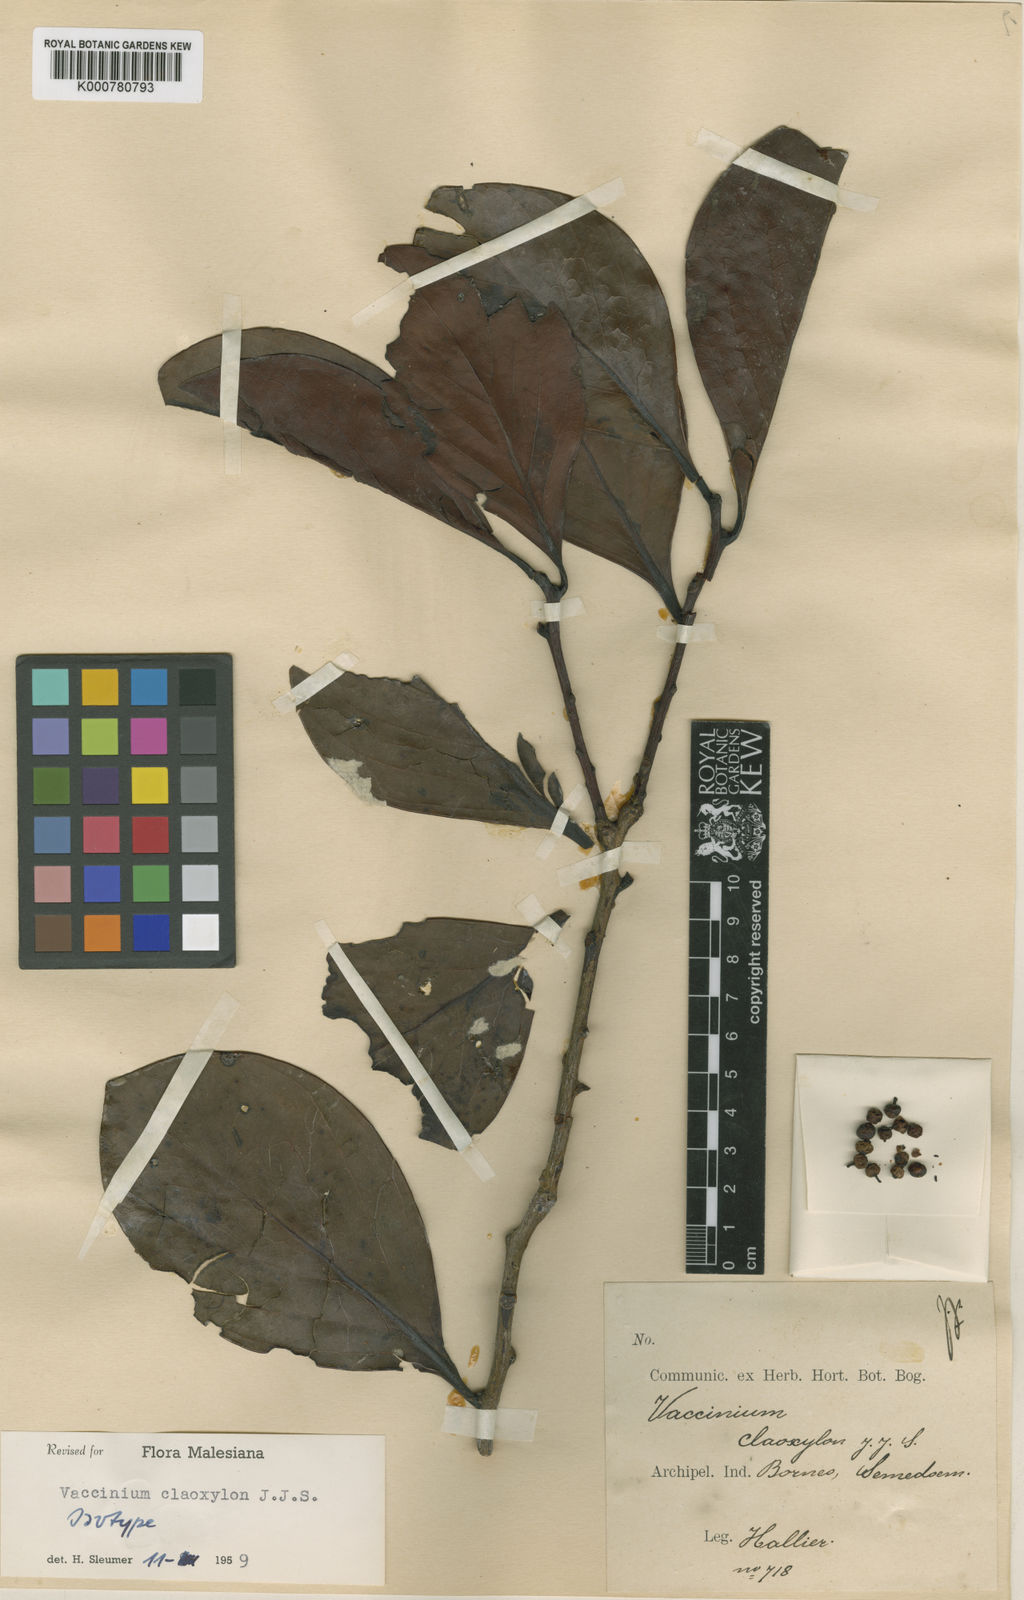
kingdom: Plantae
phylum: Tracheophyta
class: Magnoliopsida
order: Ericales
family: Ericaceae
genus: Vaccinium
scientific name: Vaccinium claoxylon
